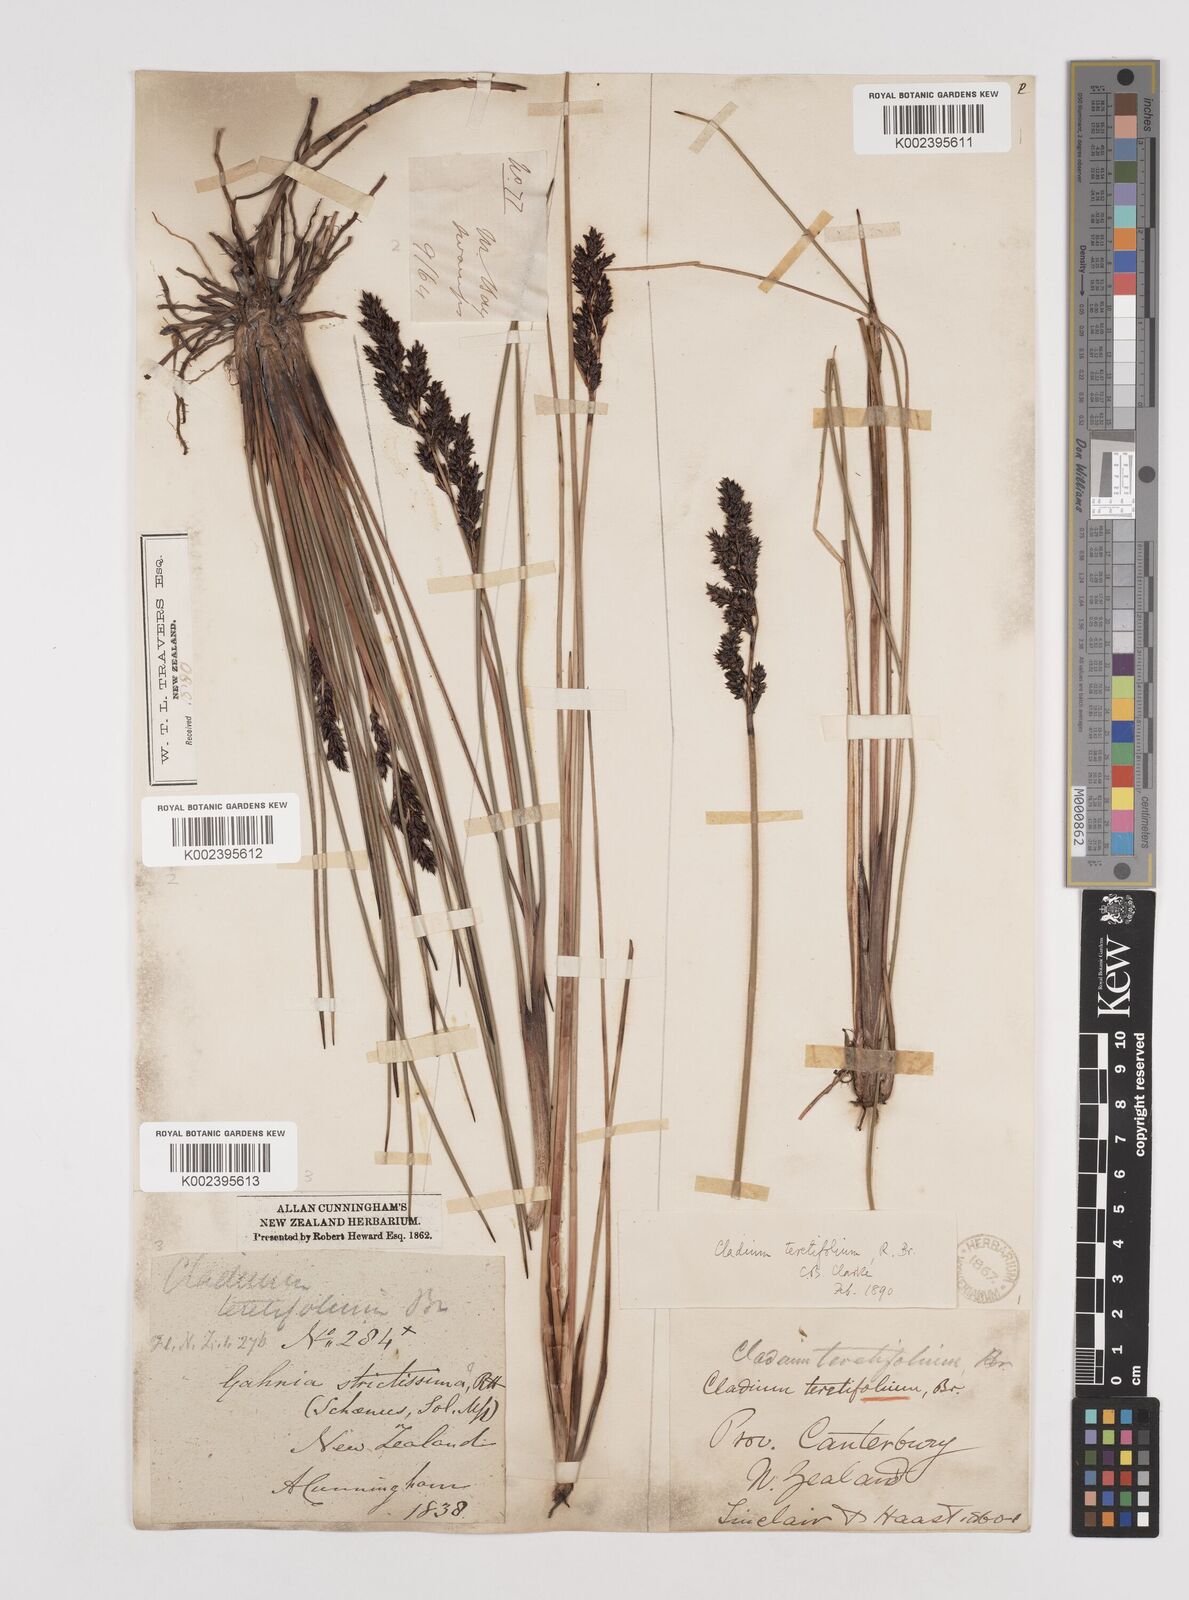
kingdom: Plantae
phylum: Tracheophyta
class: Liliopsida
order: Poales
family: Cyperaceae
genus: Machaerina
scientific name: Machaerina teretifolia
